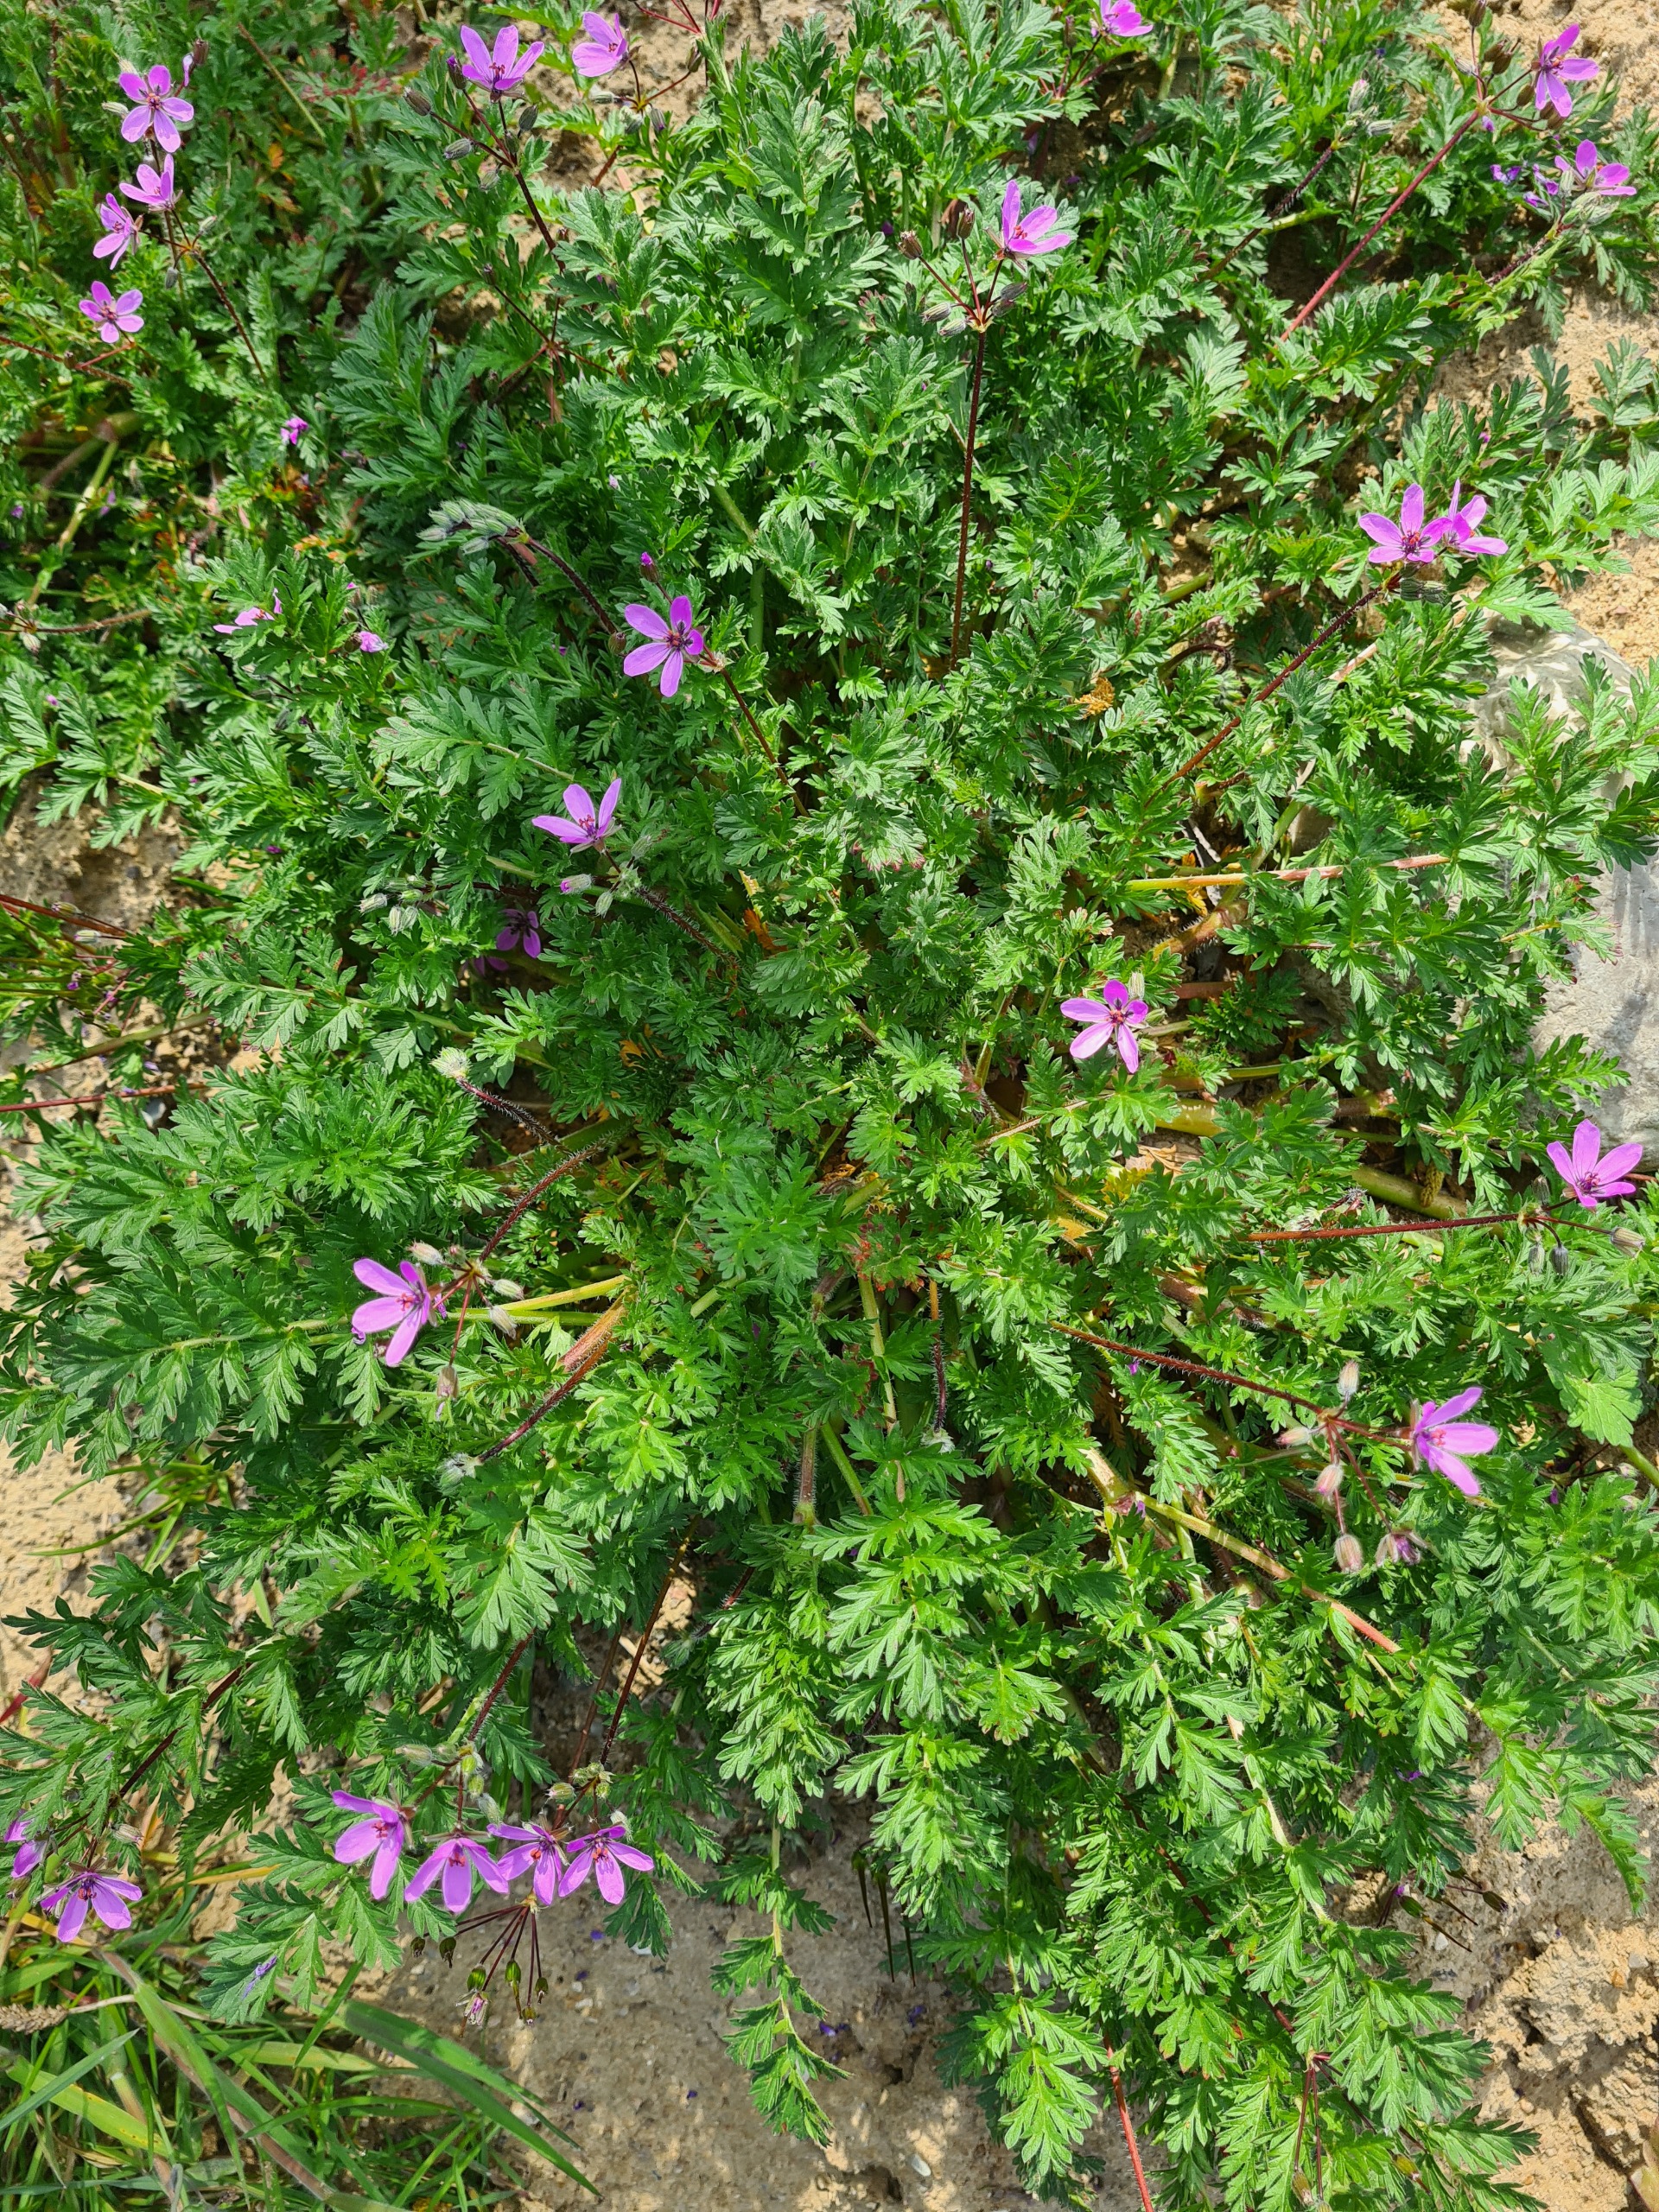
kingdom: Plantae
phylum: Tracheophyta
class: Magnoliopsida
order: Geraniales
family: Geraniaceae
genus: Erodium
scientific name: Erodium cicutarium
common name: Hejrenæb
